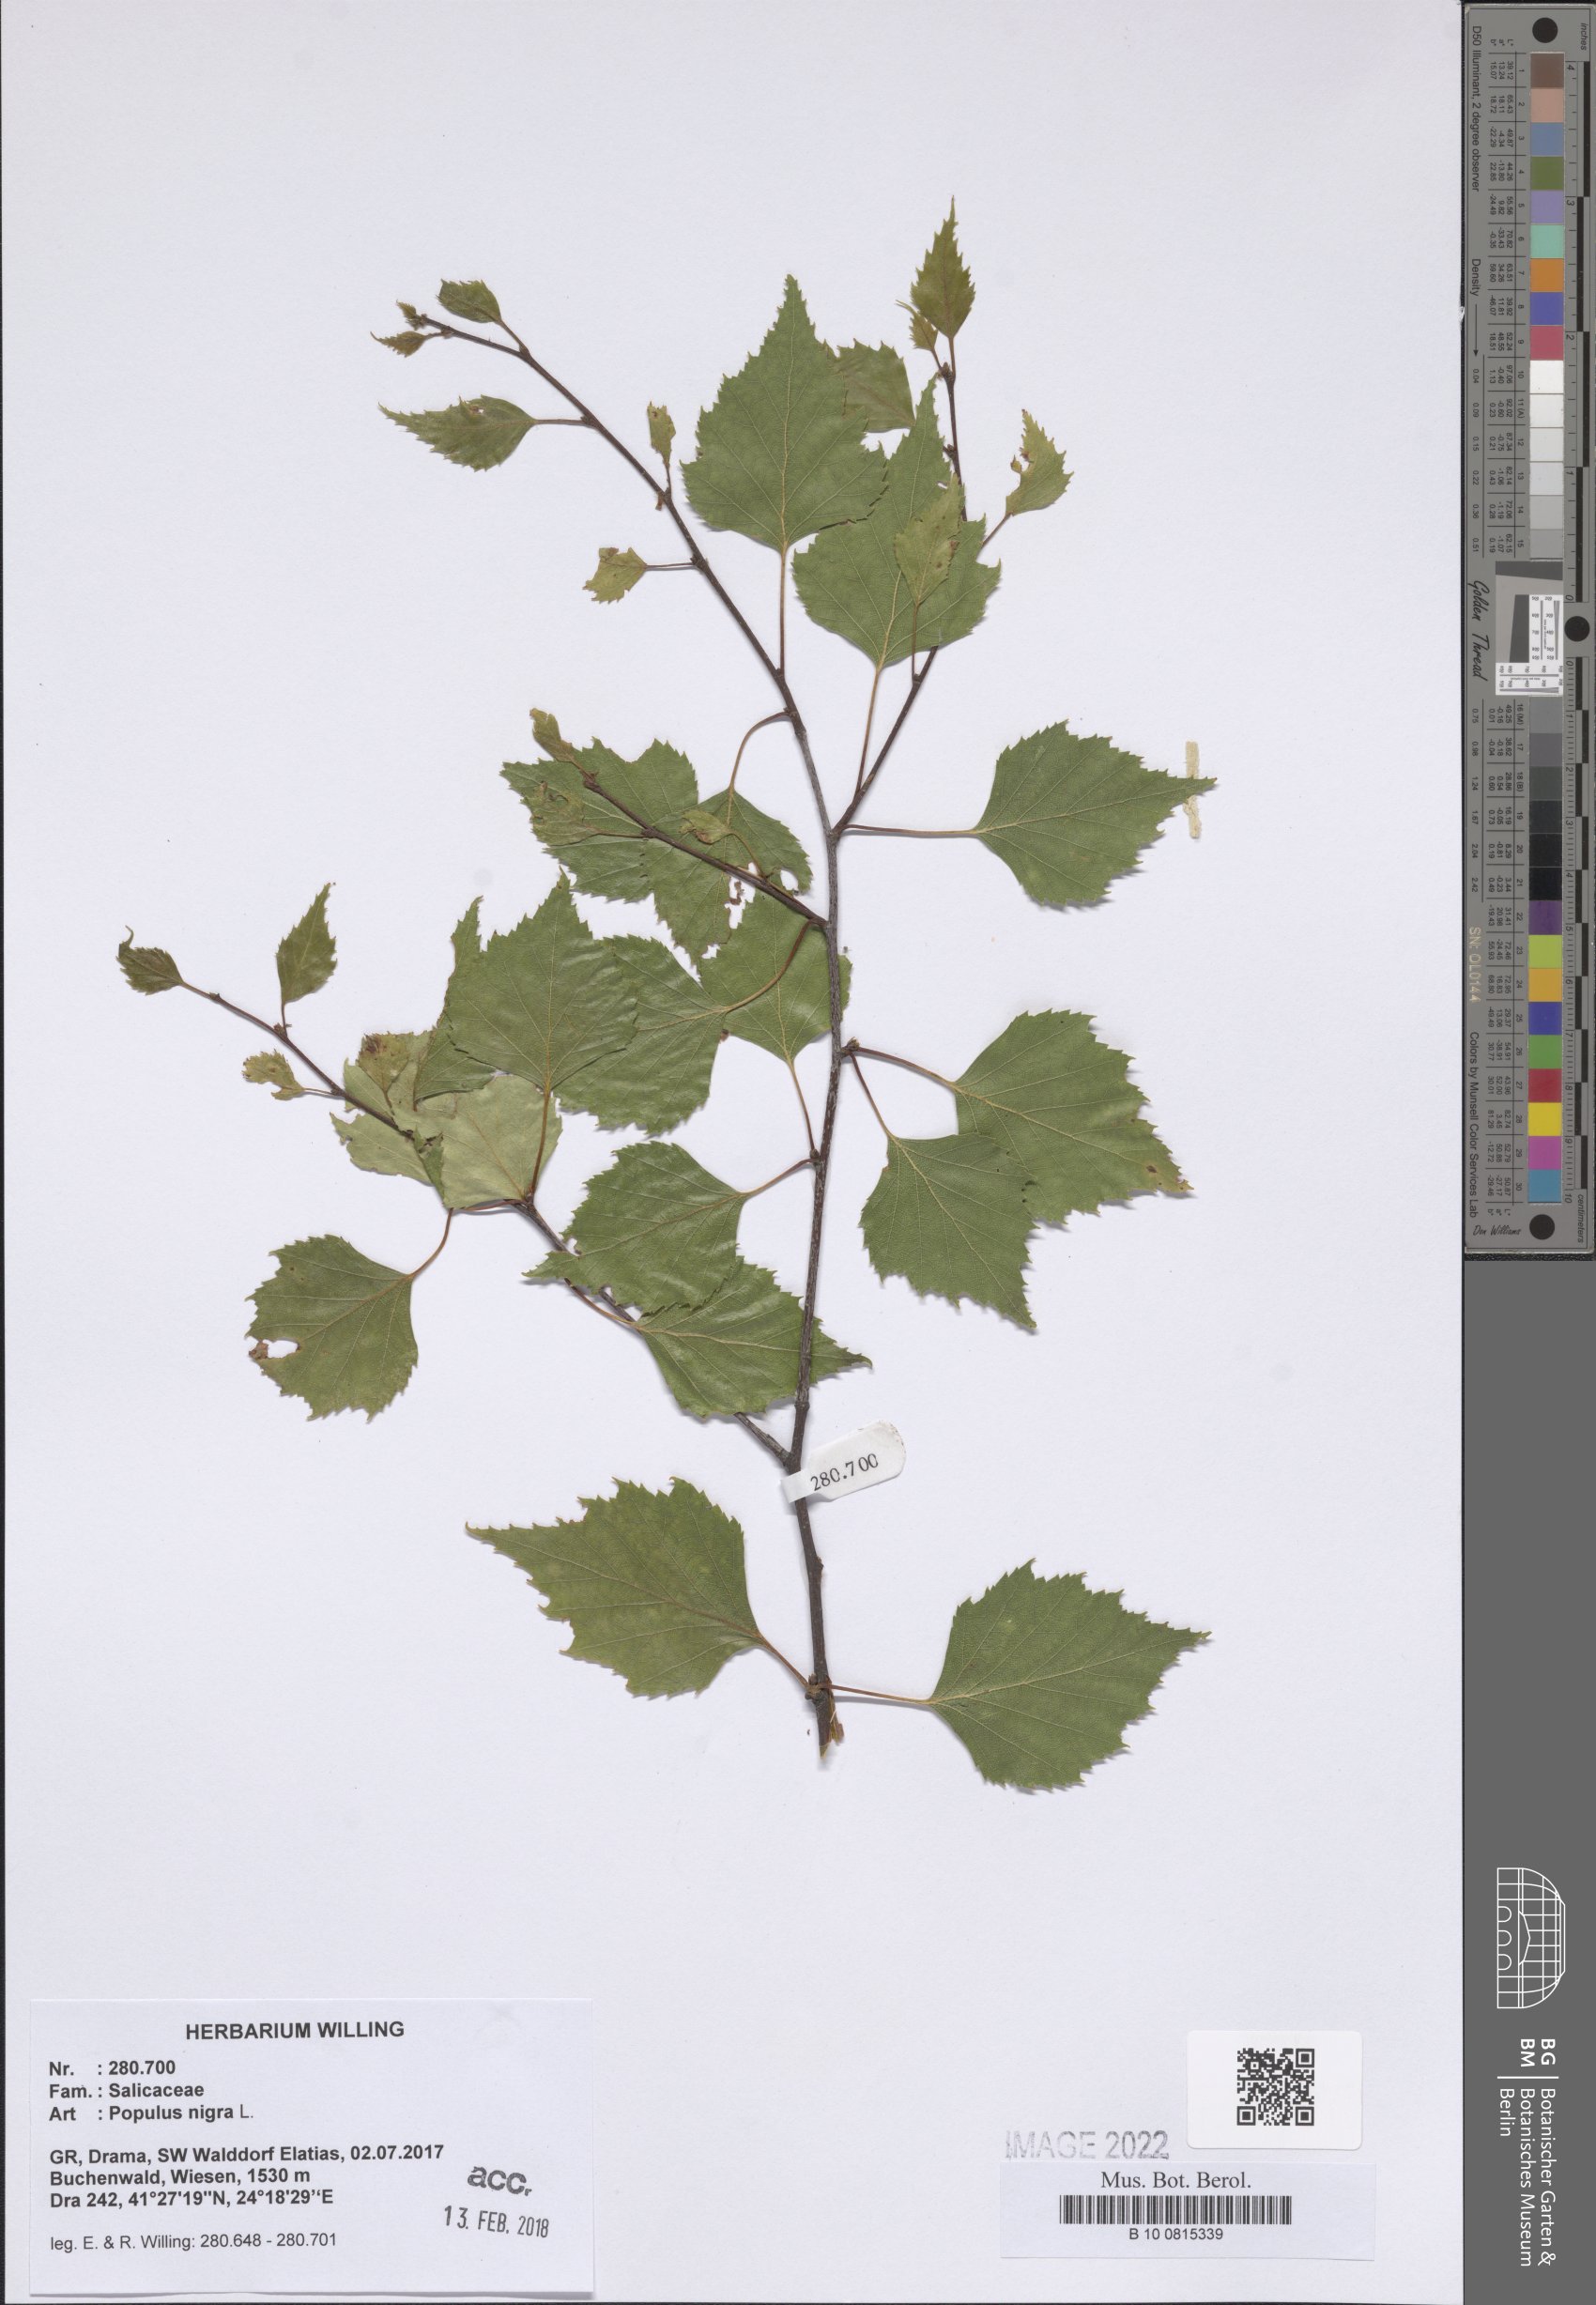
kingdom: Plantae
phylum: Tracheophyta
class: Magnoliopsida
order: Malpighiales
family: Salicaceae
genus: Populus
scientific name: Populus nigra
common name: Black poplar
